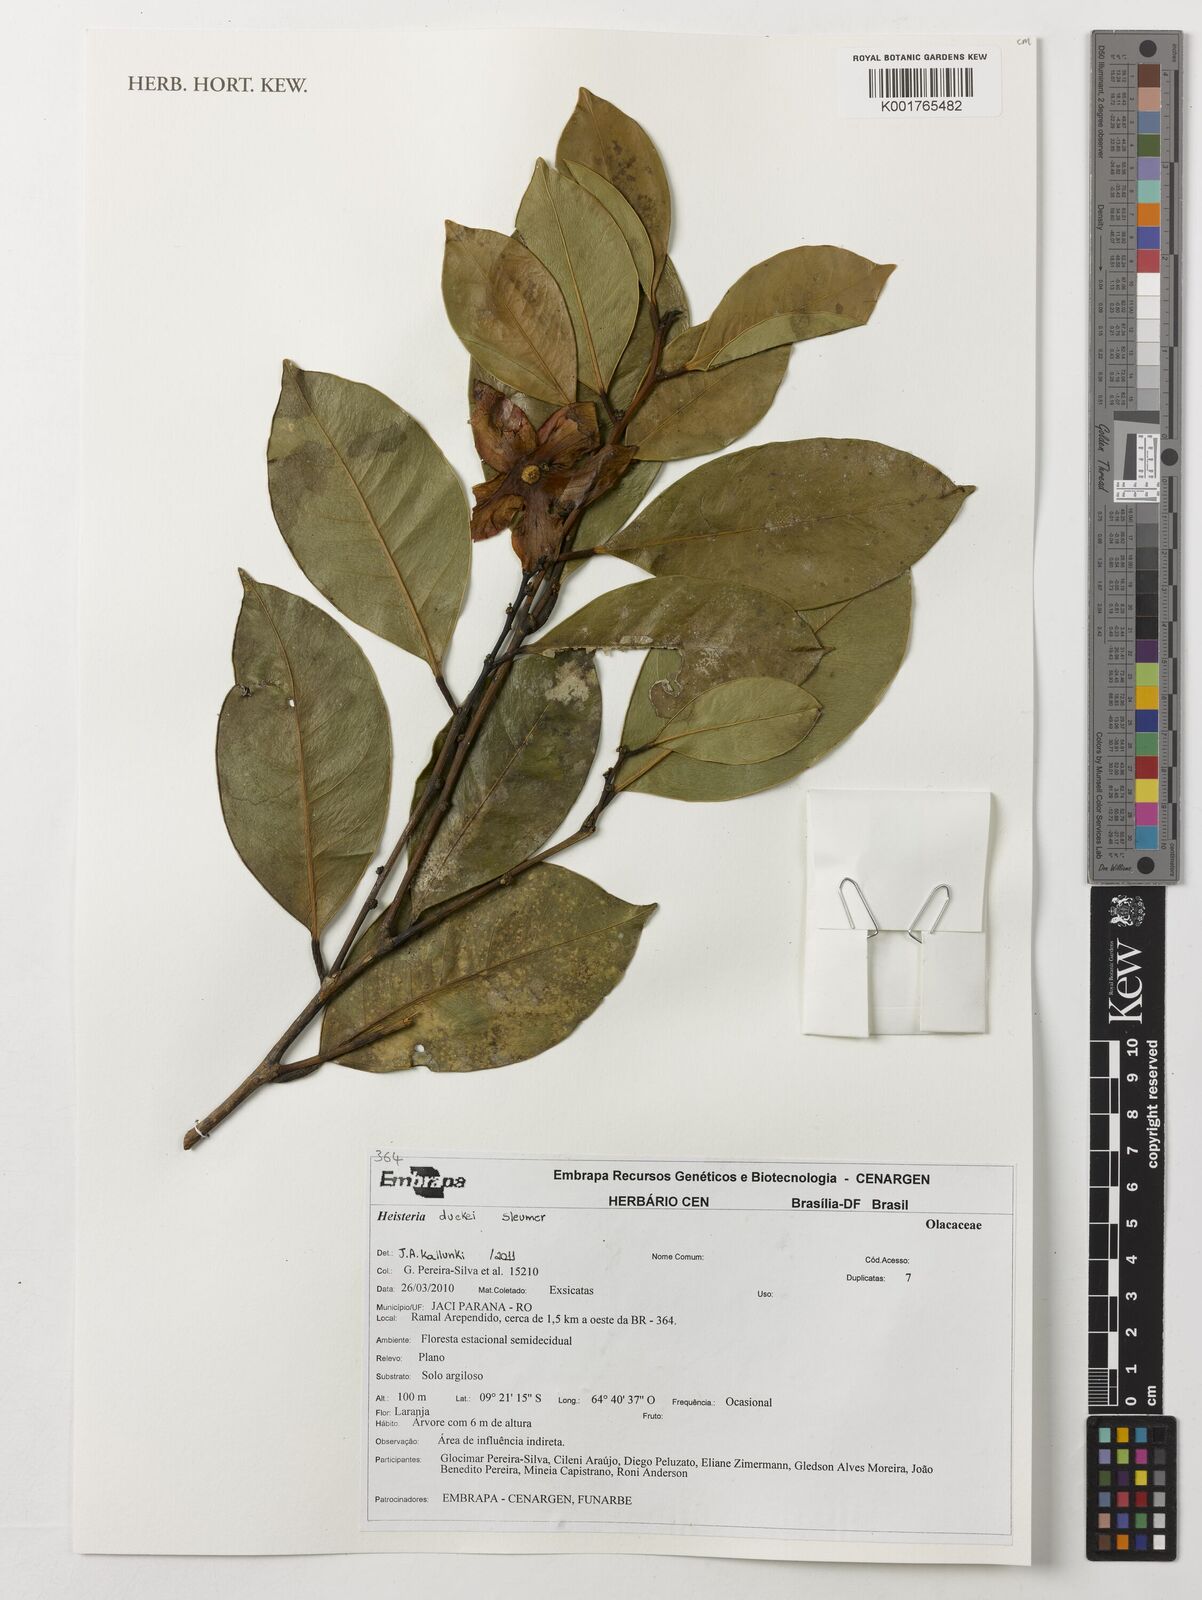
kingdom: Plantae
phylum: Tracheophyta
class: Magnoliopsida
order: Santalales
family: Erythropalaceae
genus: Heisteria
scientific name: Heisteria duckei
